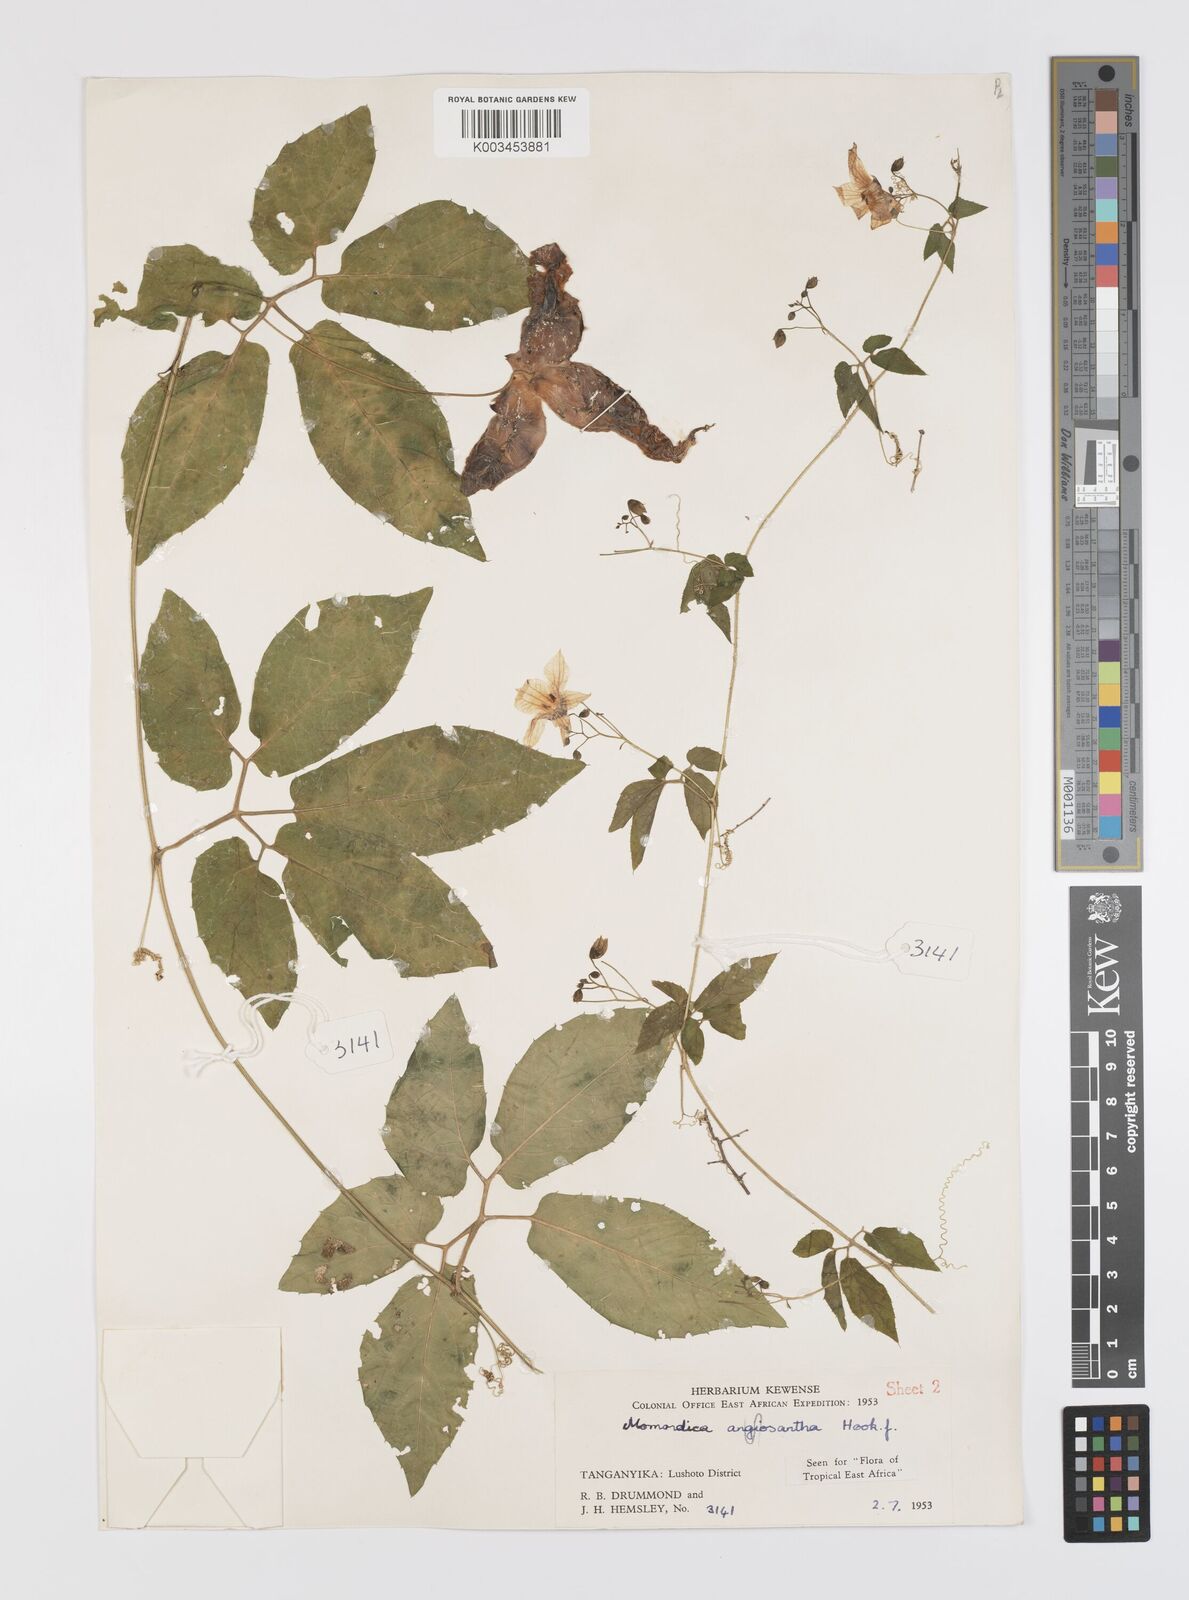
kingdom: Plantae
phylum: Tracheophyta
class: Magnoliopsida
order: Cucurbitales
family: Cucurbitaceae
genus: Momordica
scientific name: Momordica anigosantha
